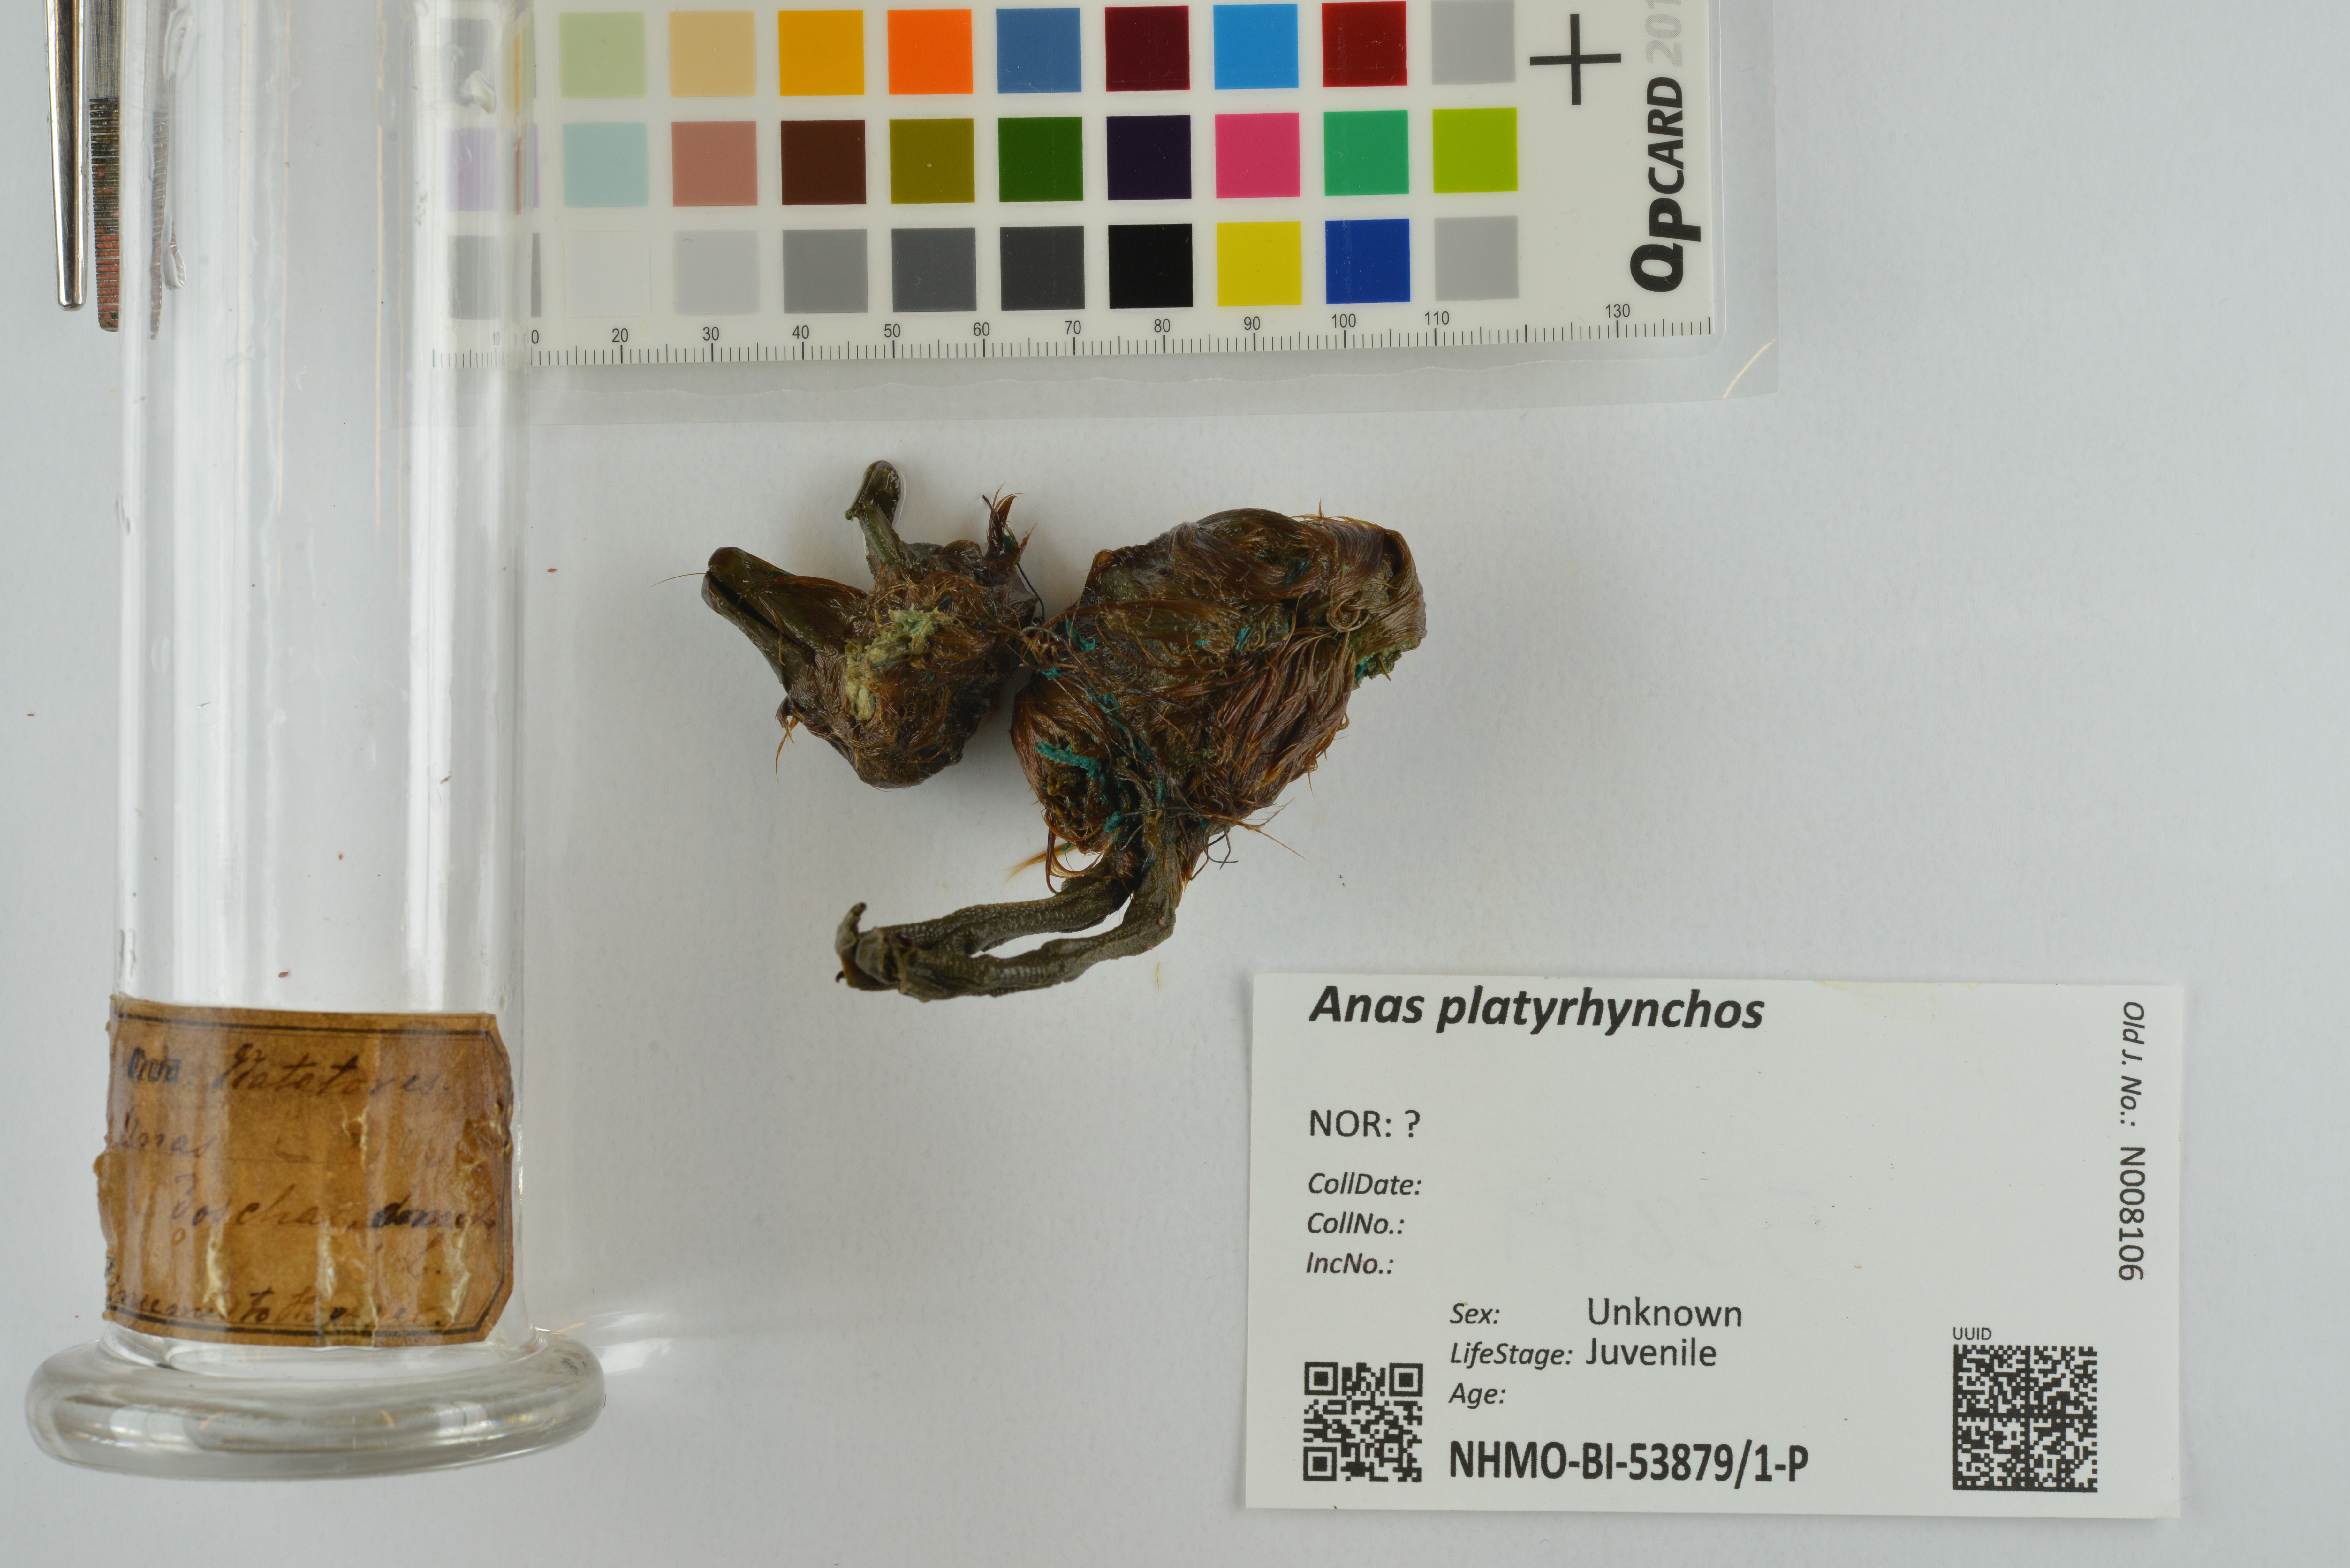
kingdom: Animalia
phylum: Chordata
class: Aves
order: Anseriformes
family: Anatidae
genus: Anas
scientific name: Anas platyrhynchos
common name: Mallard
